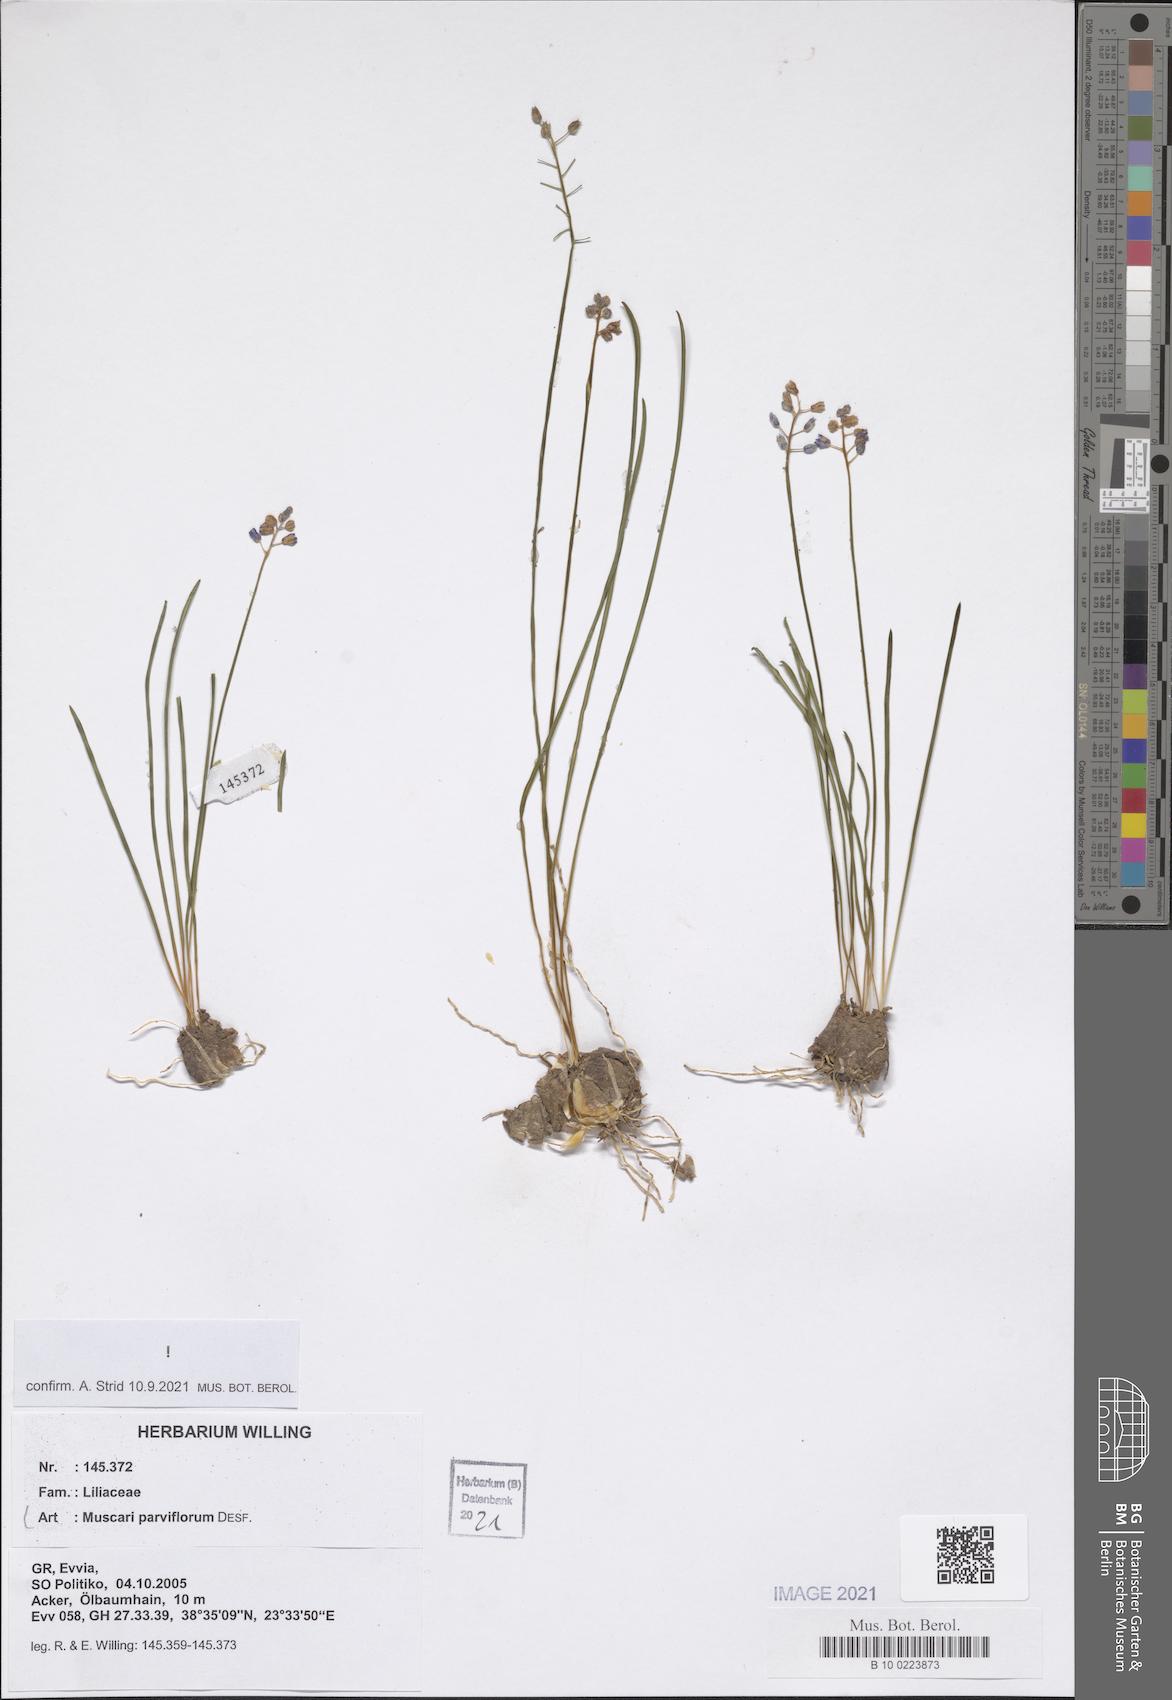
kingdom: Plantae
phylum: Tracheophyta
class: Liliopsida
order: Asparagales
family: Asparagaceae
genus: Muscari
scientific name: Muscari parviflorum
